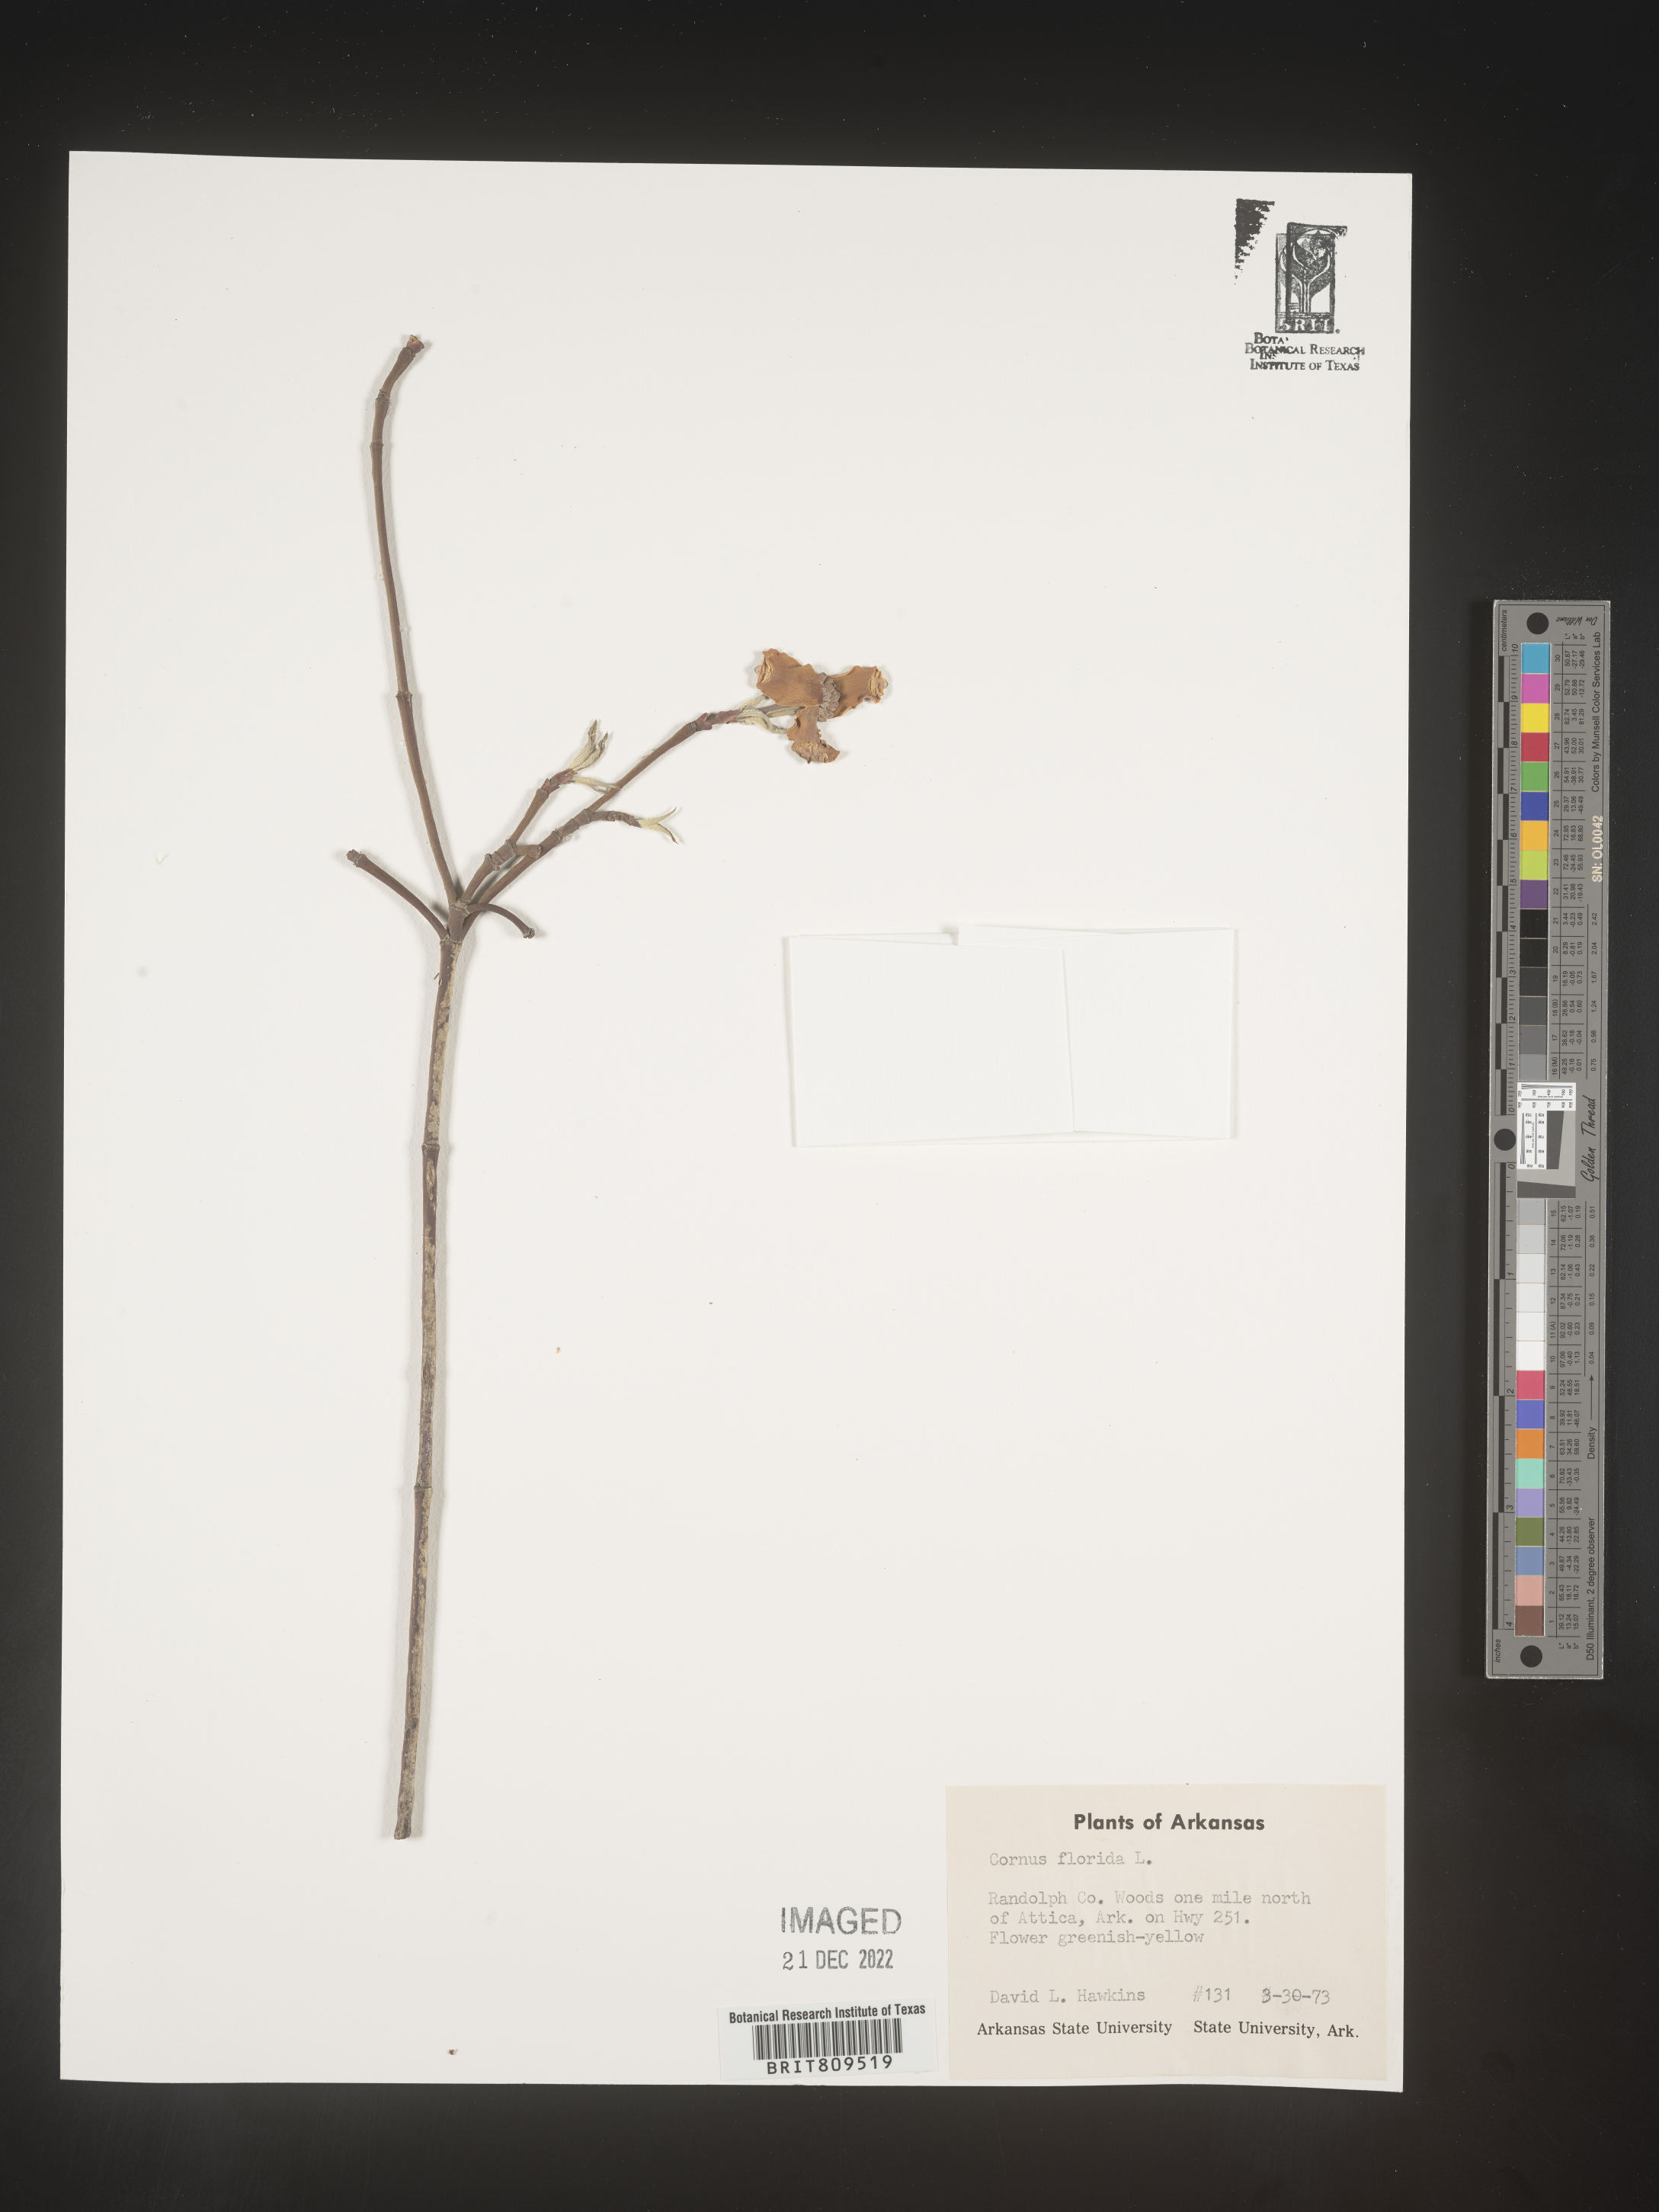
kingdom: Plantae
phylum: Tracheophyta
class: Magnoliopsida
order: Cornales
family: Cornaceae
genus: Cornus
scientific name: Cornus florida
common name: Flowering dogwood
